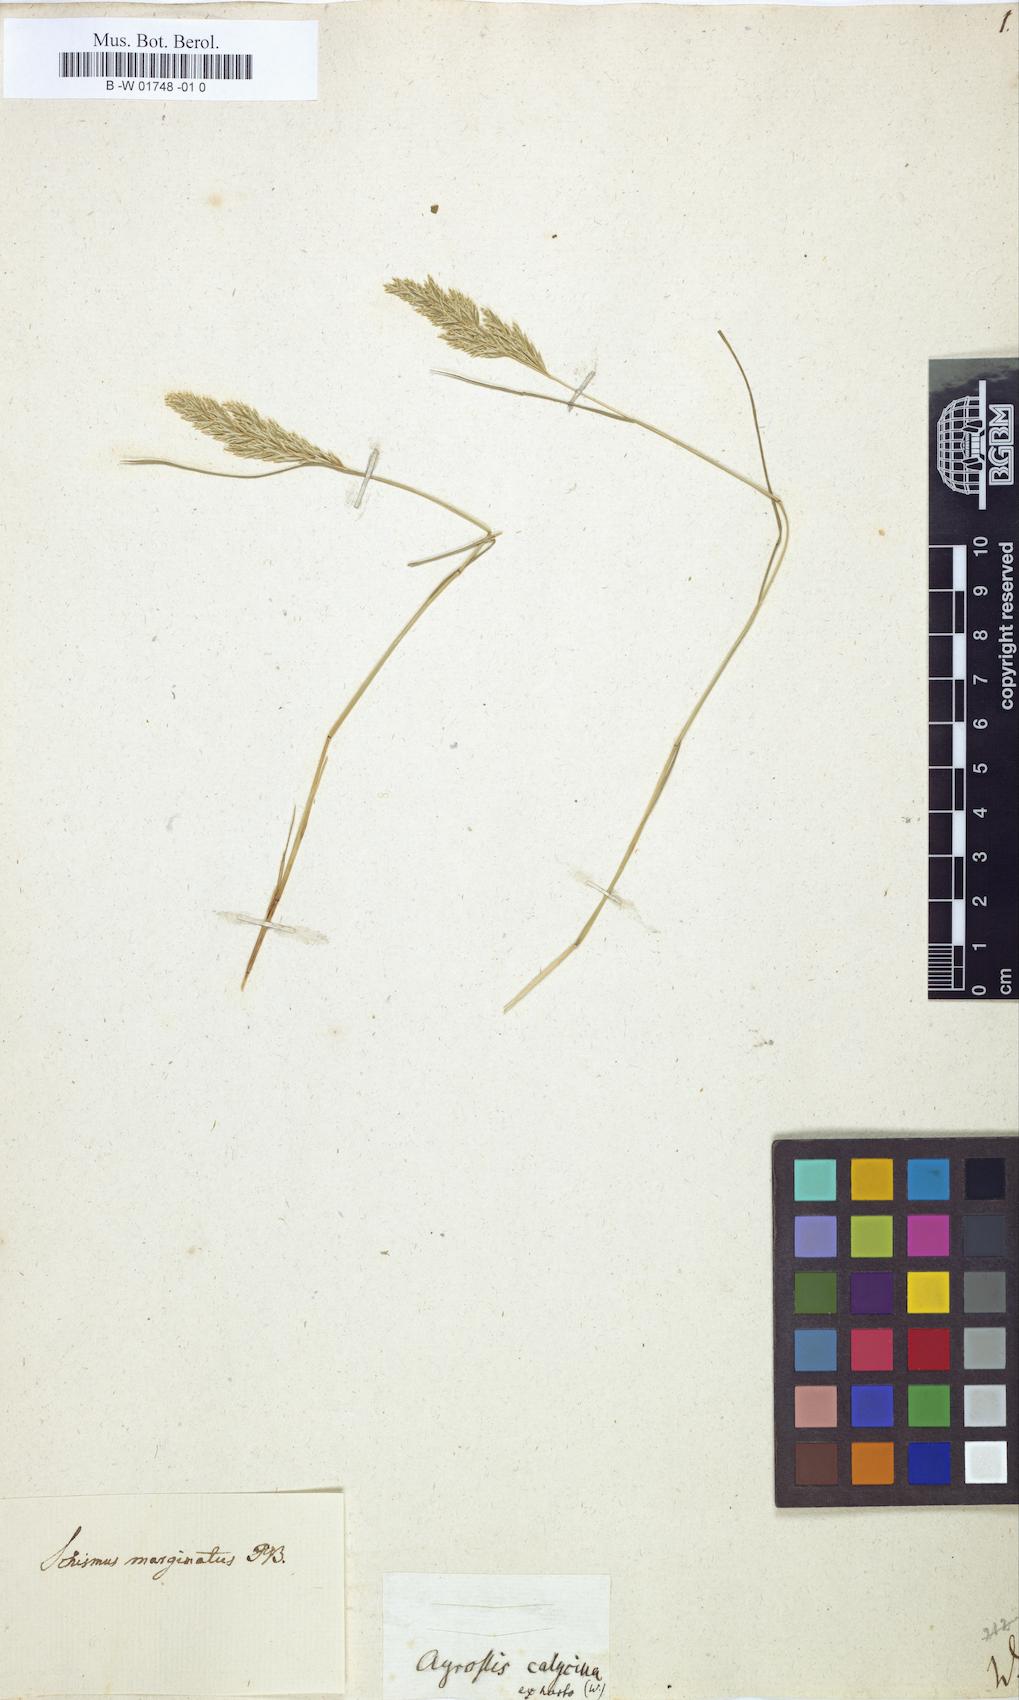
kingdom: Plantae
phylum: Tracheophyta
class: Liliopsida
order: Poales
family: Poaceae
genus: Schismus
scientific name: Schismus barbatus
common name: Kelch-grass
